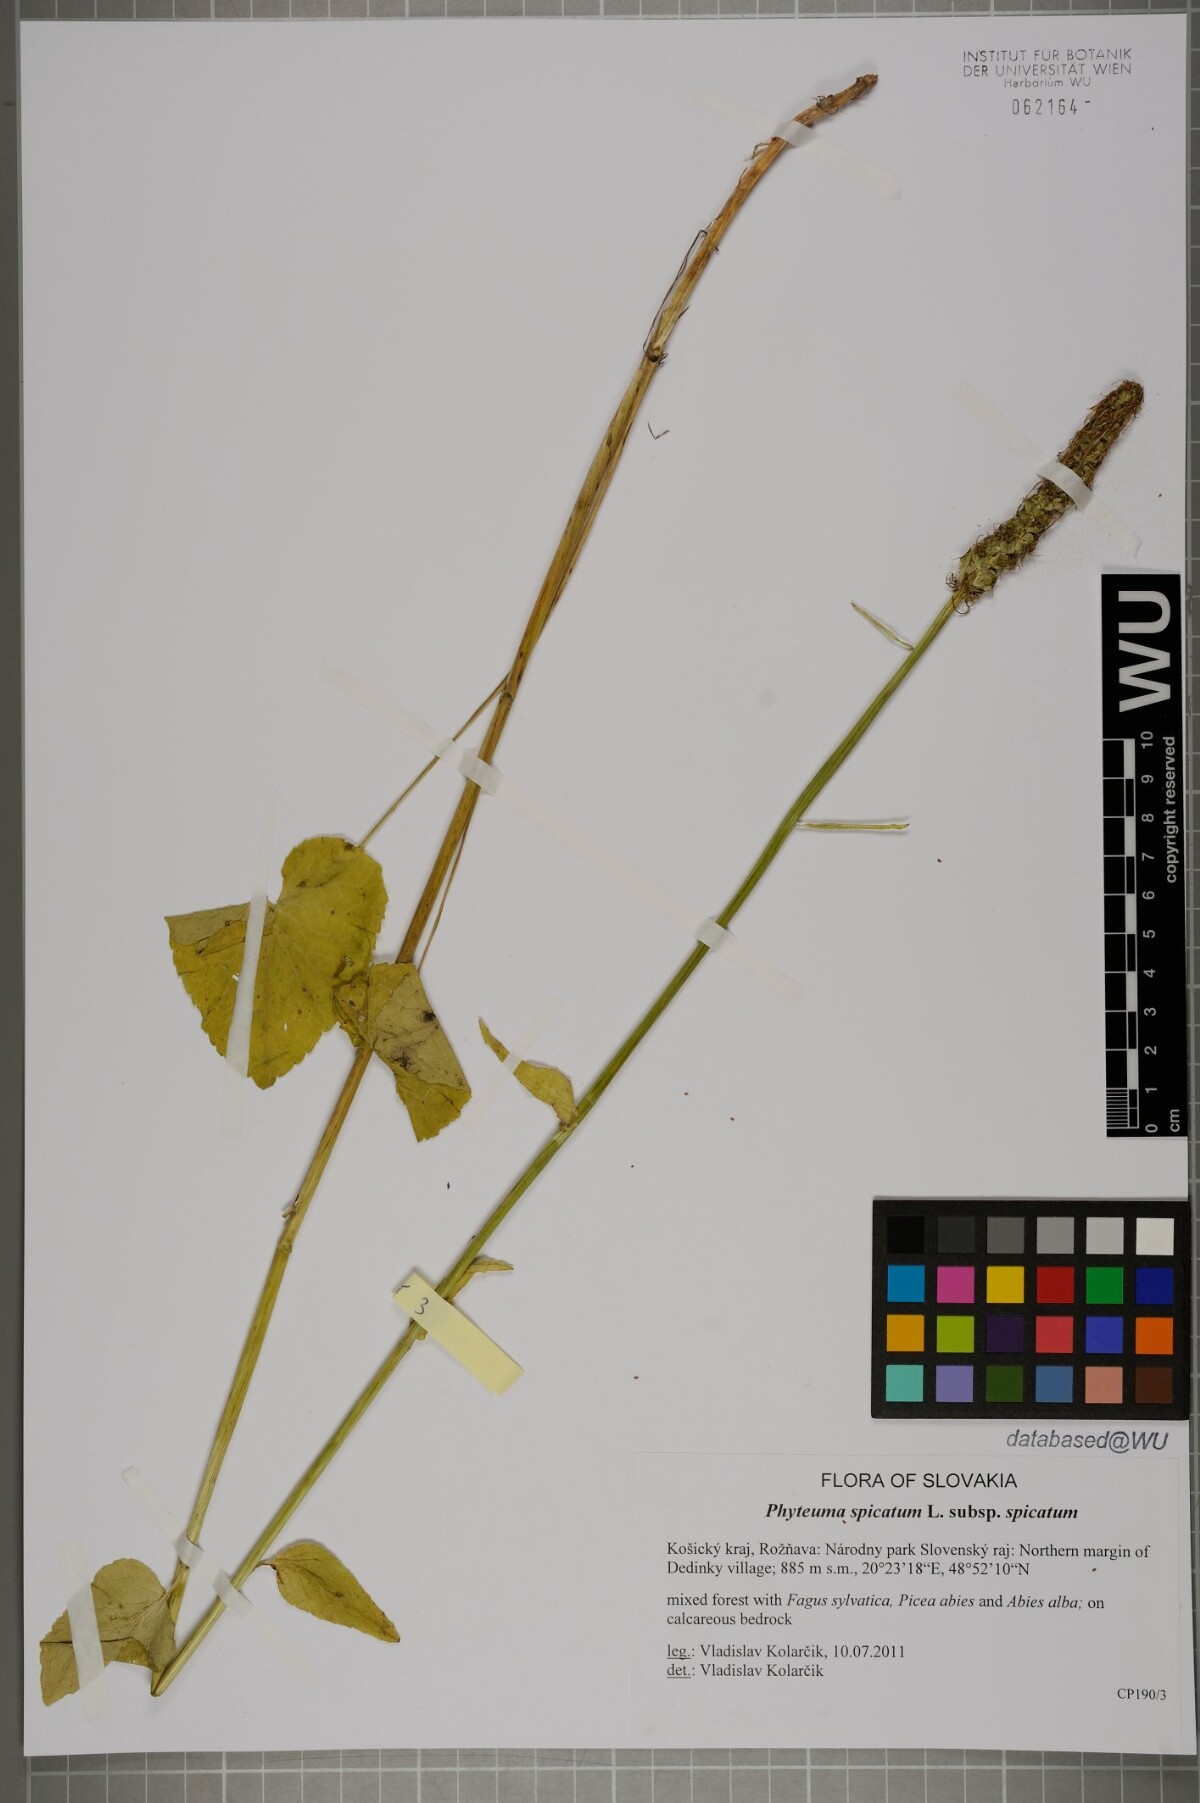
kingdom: Plantae
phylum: Tracheophyta
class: Magnoliopsida
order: Asterales
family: Campanulaceae
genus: Phyteuma
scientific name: Phyteuma spicatum
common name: Spiked rampion
